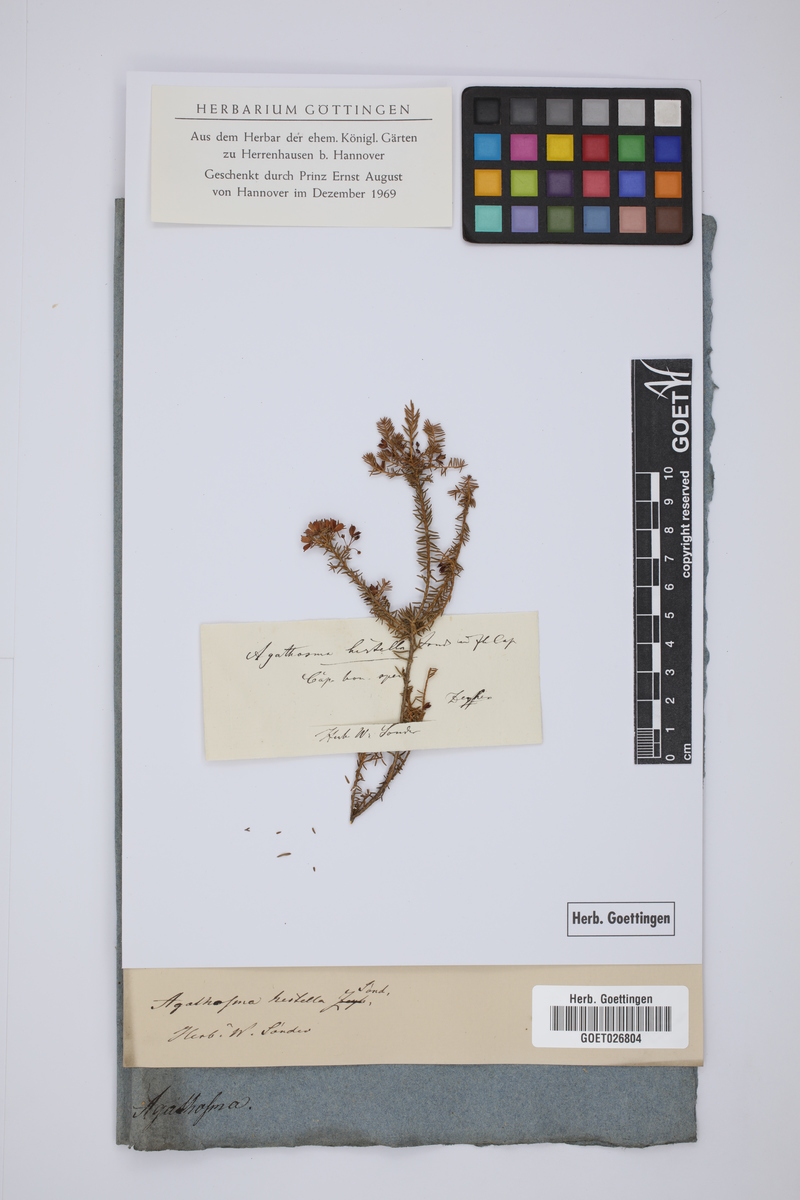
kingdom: Plantae
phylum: Tracheophyta
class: Magnoliopsida
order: Sapindales
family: Rutaceae
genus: Agathosma
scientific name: Agathosma capensis
